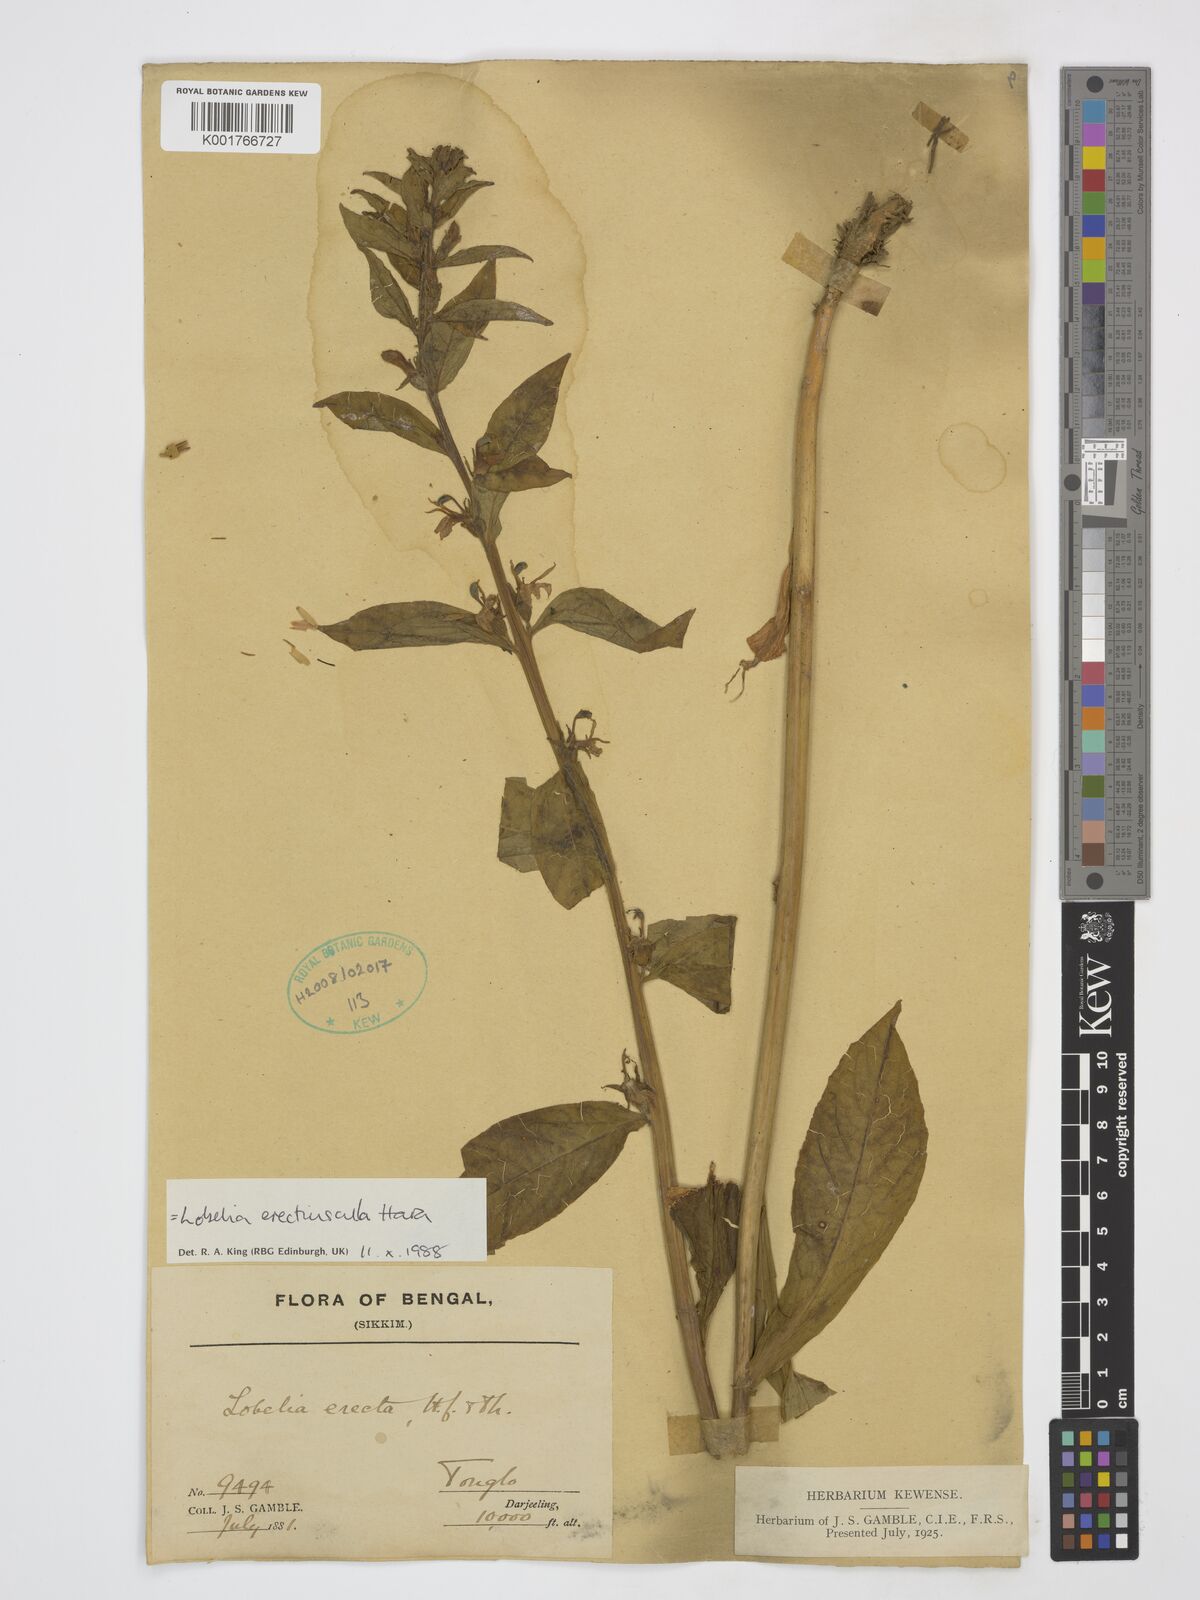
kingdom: Plantae
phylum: Tracheophyta
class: Magnoliopsida
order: Asterales
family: Campanulaceae
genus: Lobelia
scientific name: Lobelia erectiuscula
